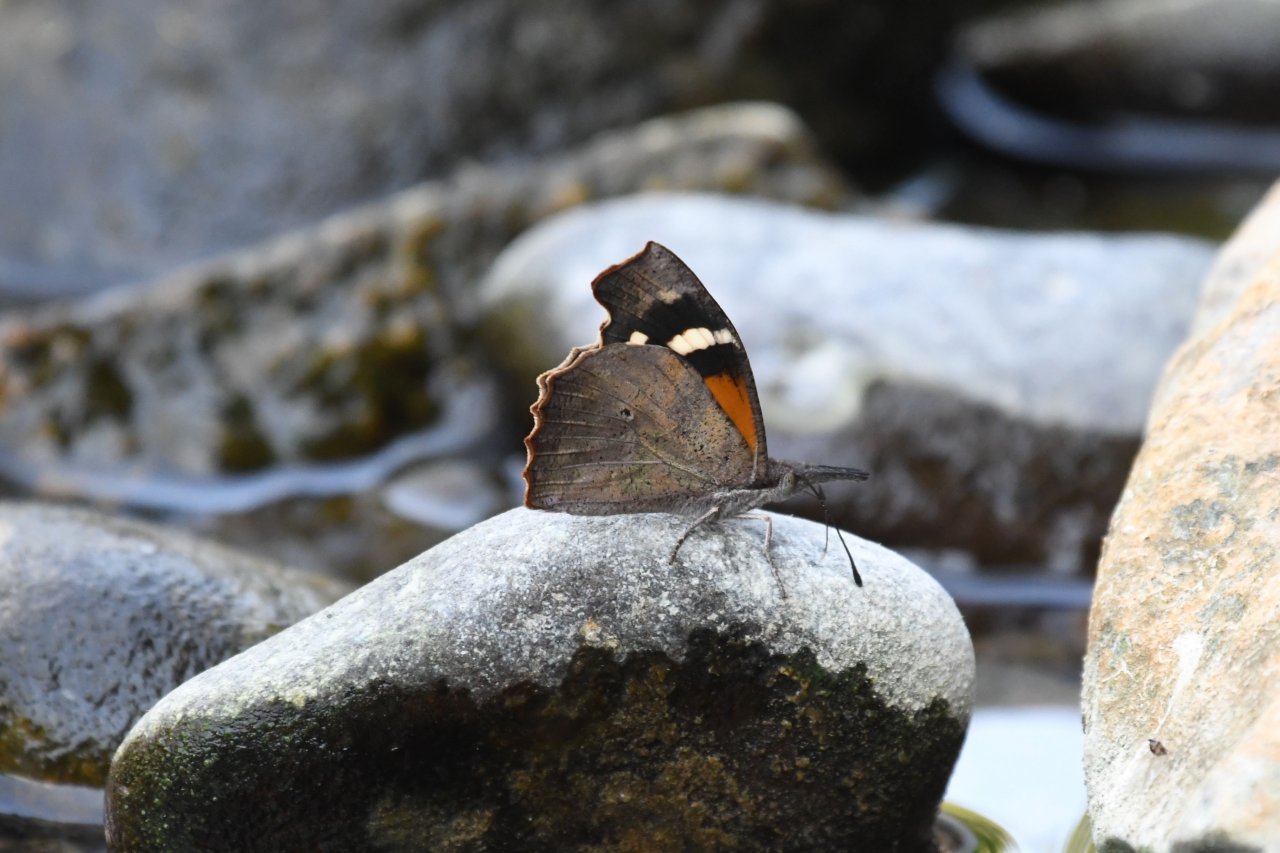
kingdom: Animalia
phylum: Arthropoda
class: Insecta
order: Lepidoptera
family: Nymphalidae
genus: Libytheana
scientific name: Libytheana carinenta
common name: American Snout
